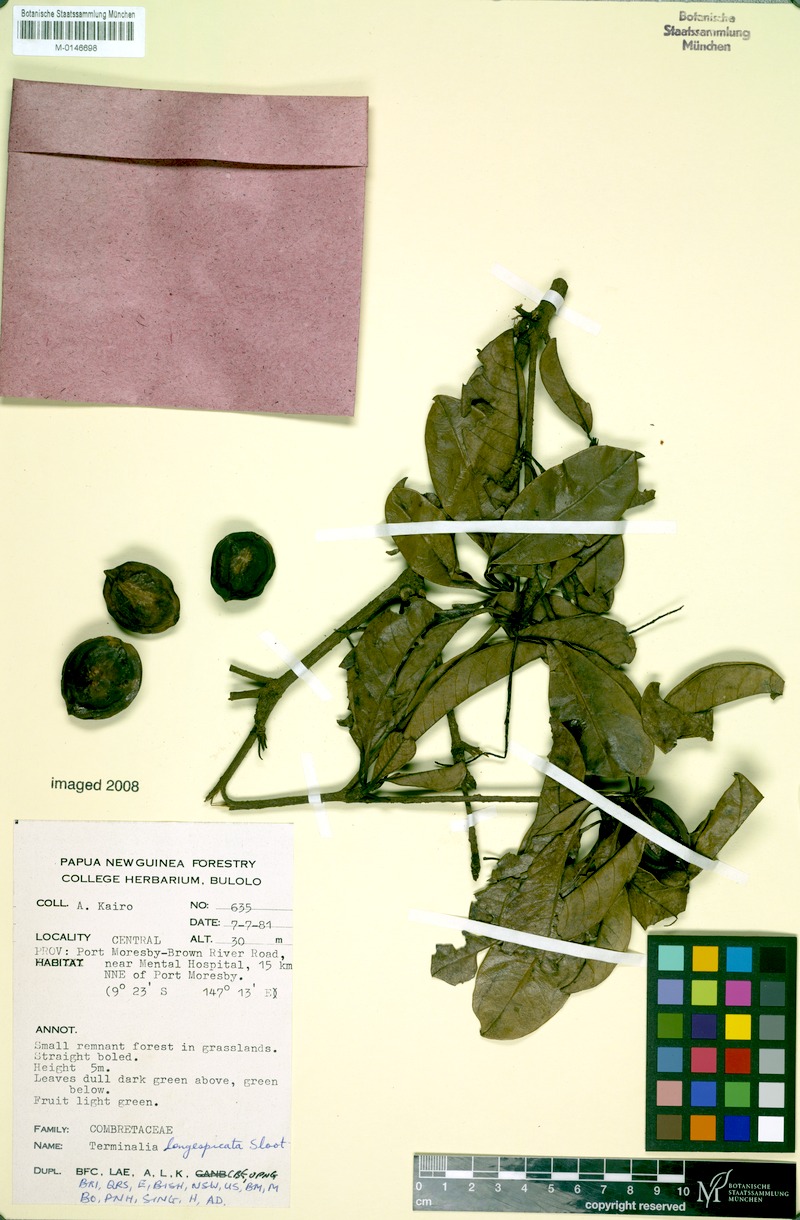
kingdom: Plantae
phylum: Tracheophyta
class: Magnoliopsida
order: Myrtales
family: Combretaceae
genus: Terminalia
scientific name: Terminalia longespicata
